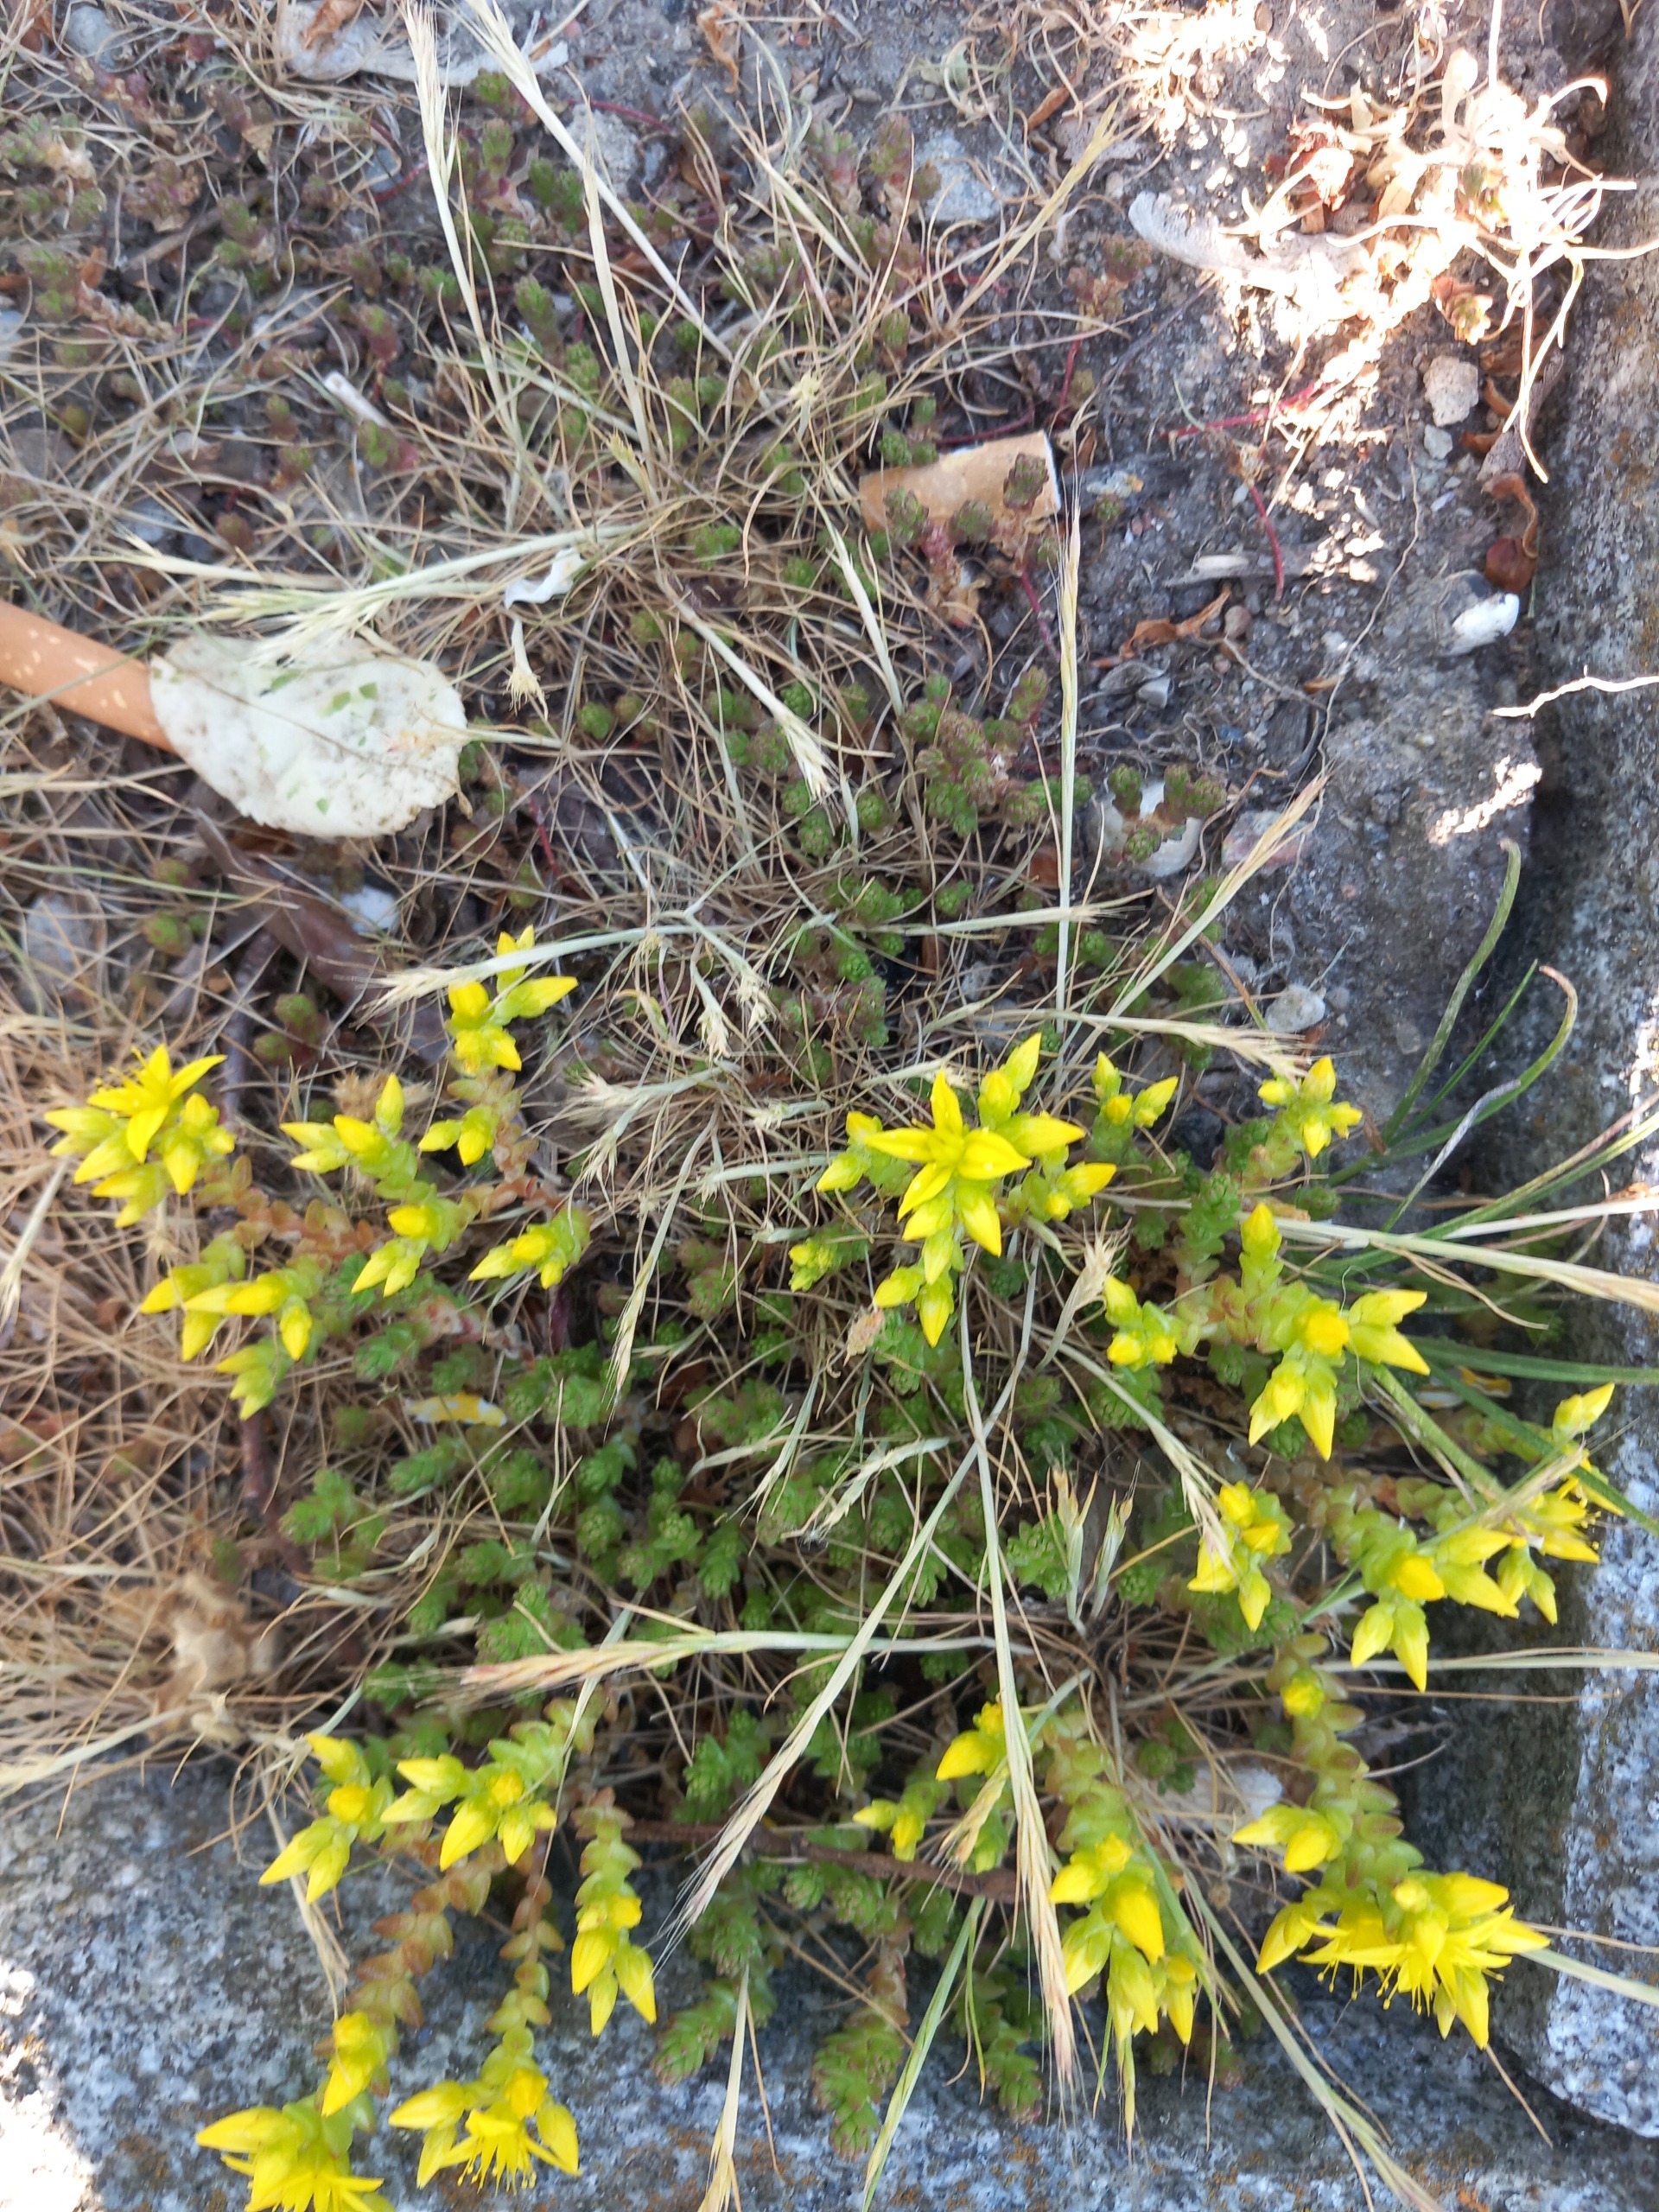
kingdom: Plantae
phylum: Tracheophyta
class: Magnoliopsida
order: Saxifragales
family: Crassulaceae
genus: Sedum
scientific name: Sedum acre
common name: Bidende stenurt
